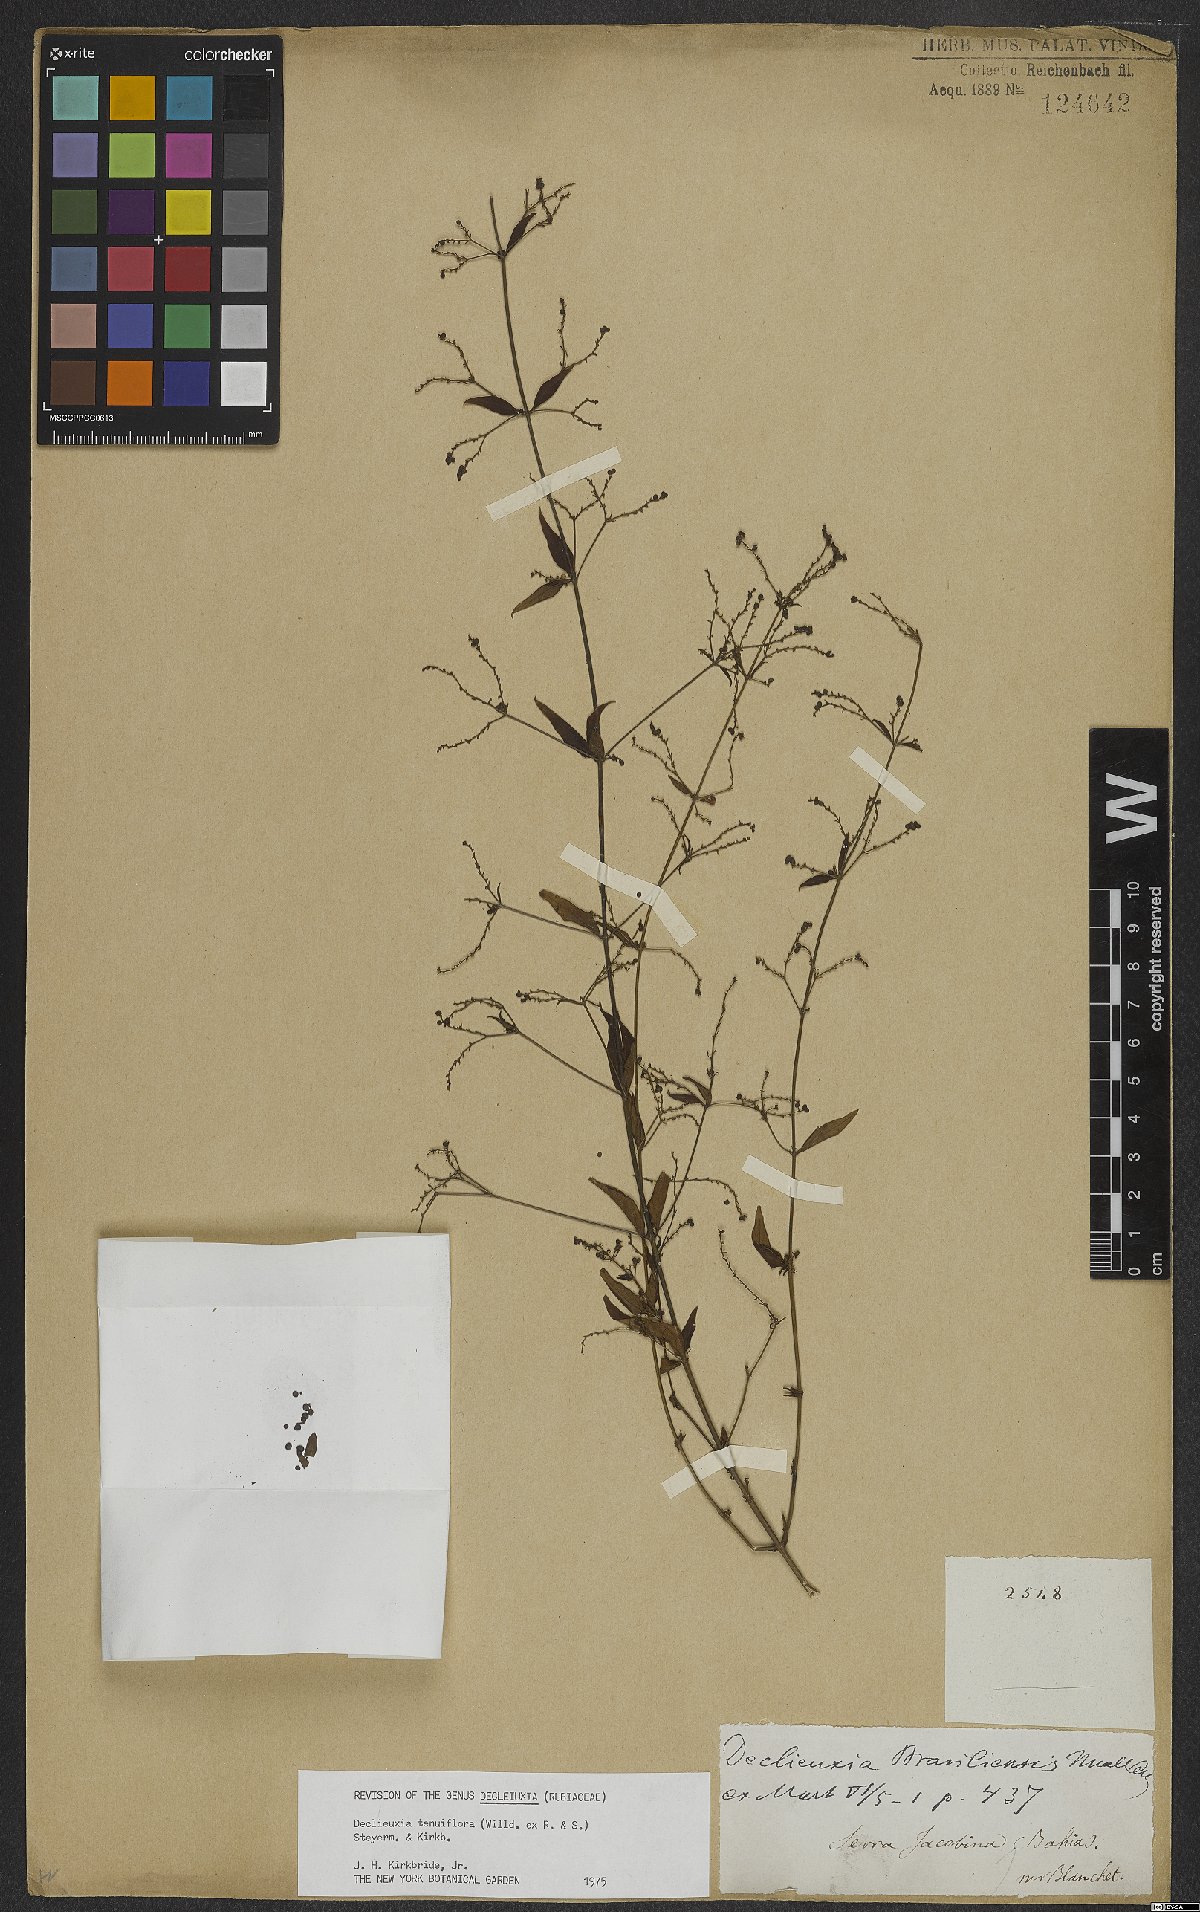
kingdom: Plantae
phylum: Tracheophyta
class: Magnoliopsida
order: Gentianales
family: Rubiaceae
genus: Declieuxia
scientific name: Declieuxia tenuiflora
